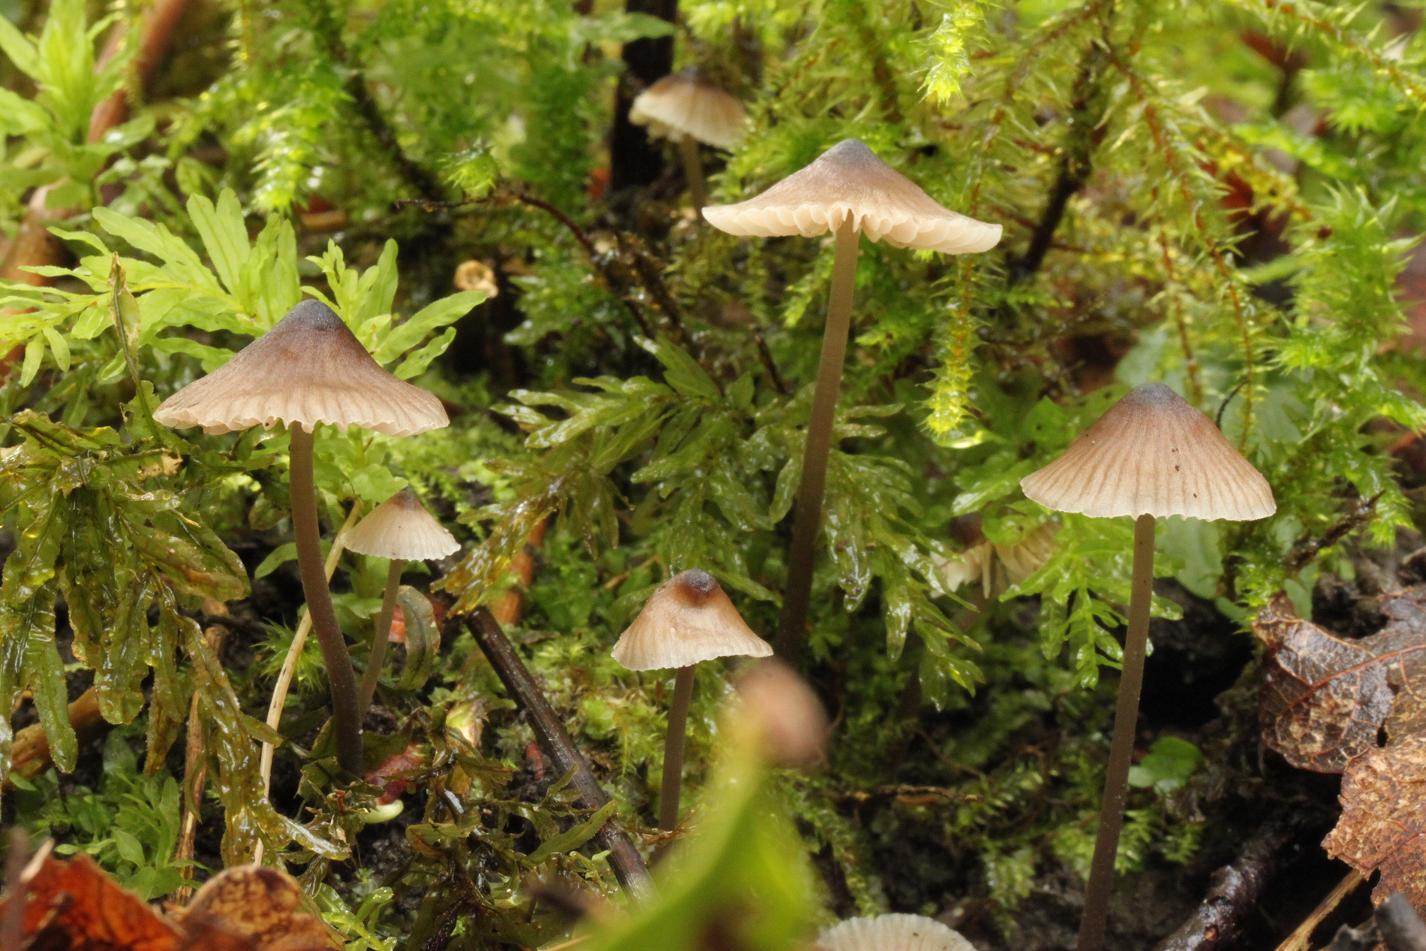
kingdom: Fungi
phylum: Basidiomycota
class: Agaricomycetes
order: Agaricales
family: Mycenaceae
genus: Mycena
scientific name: Mycena leptocephala
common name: klor-huesvamp
